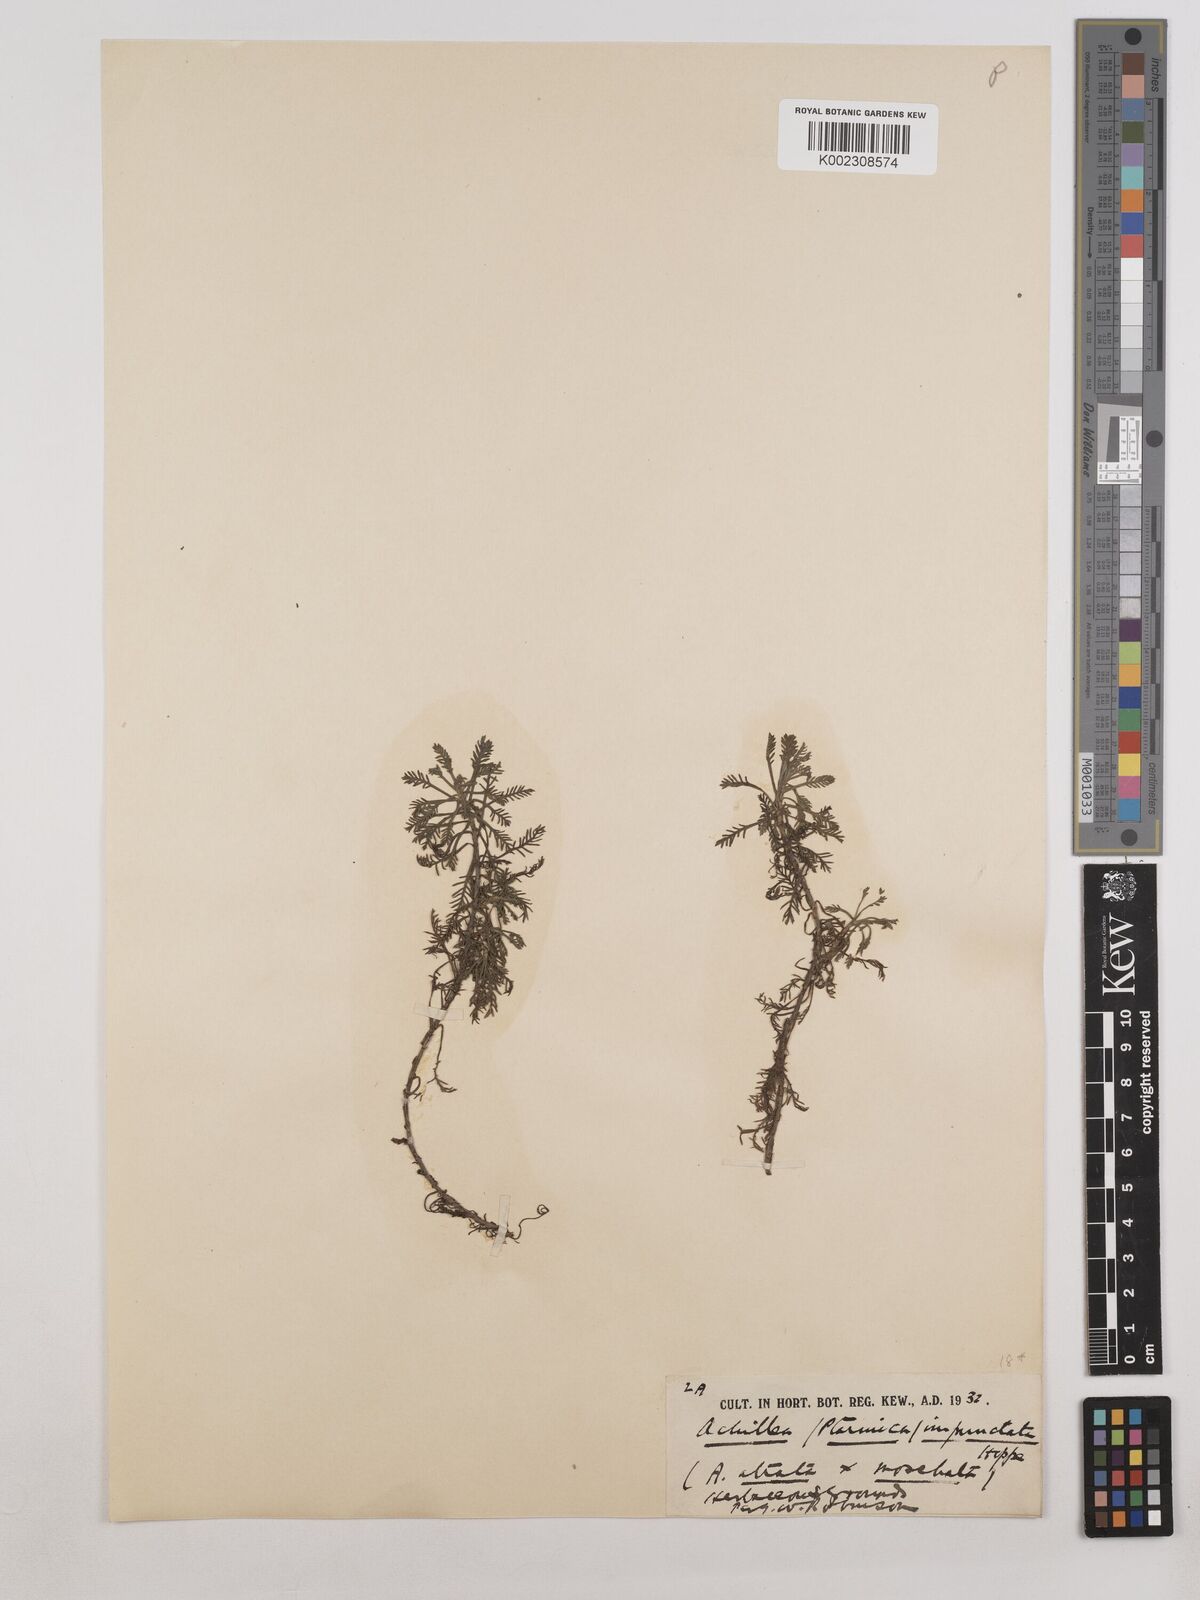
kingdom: Plantae
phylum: Tracheophyta
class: Magnoliopsida
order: Asterales
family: Asteraceae
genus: Achillea
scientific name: Achillea erba-rotta
